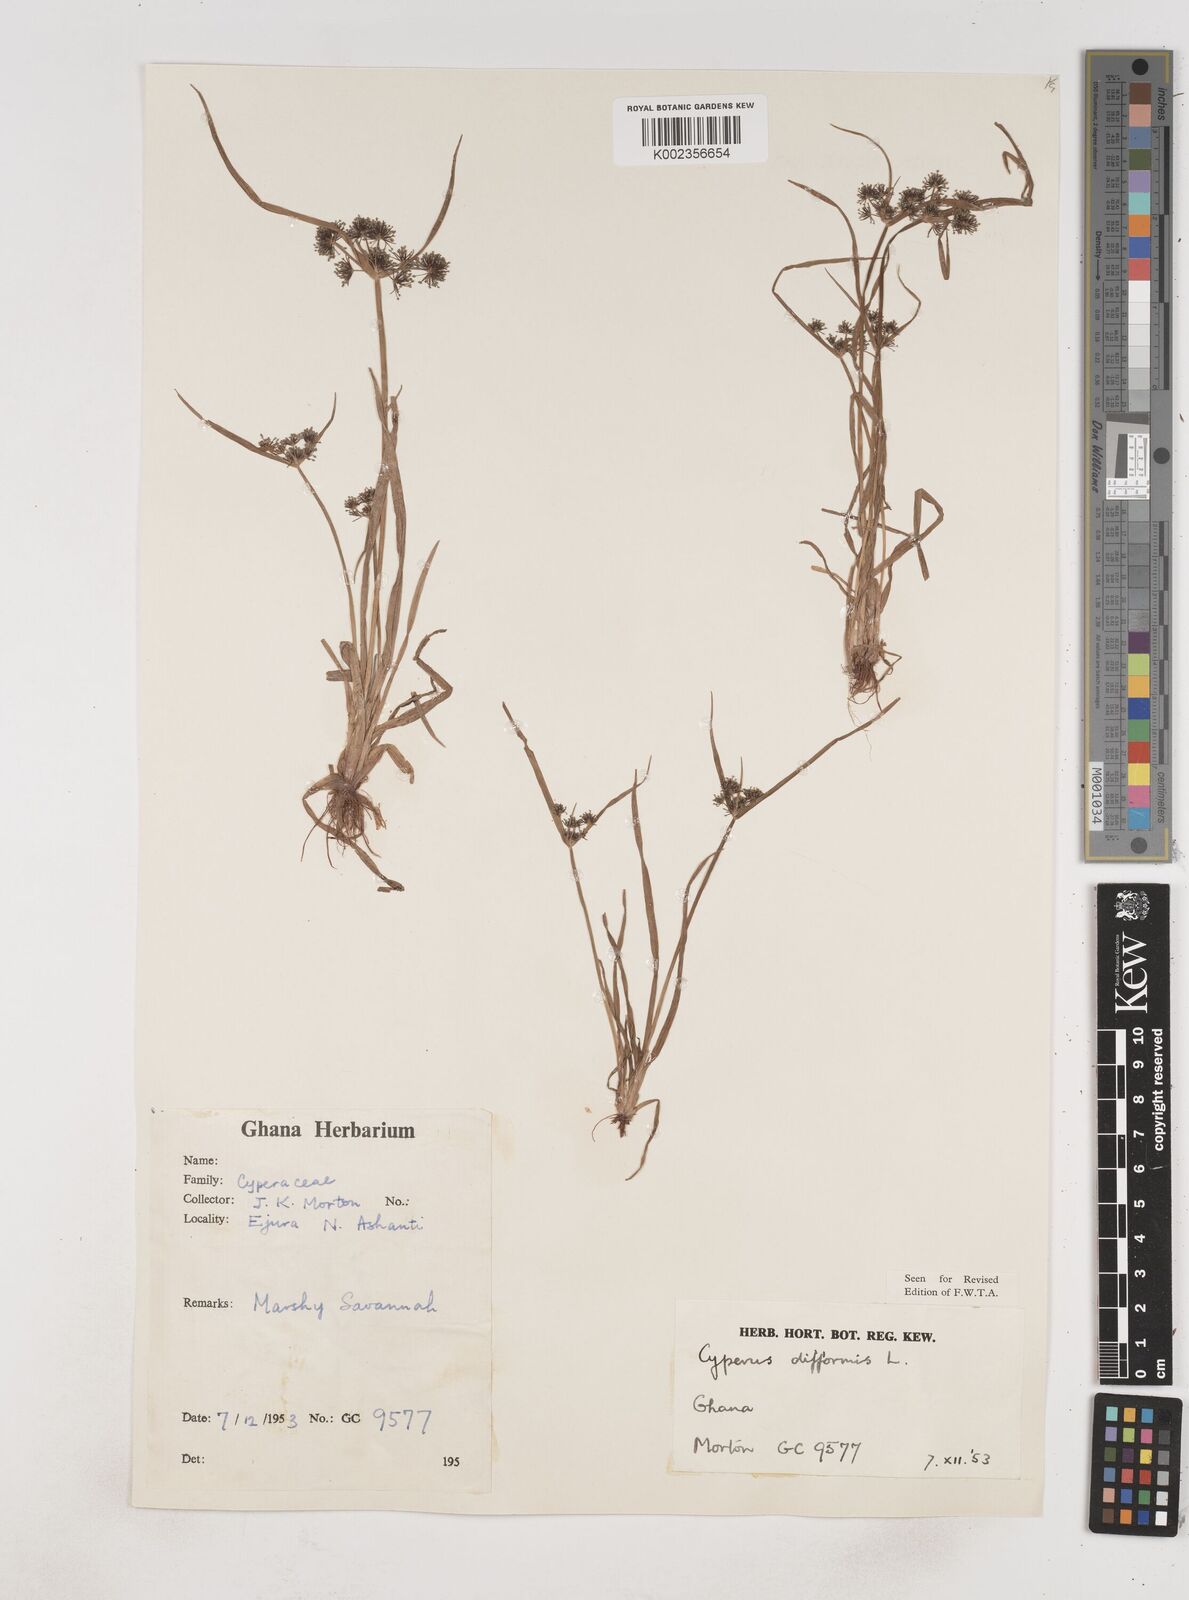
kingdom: Plantae
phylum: Tracheophyta
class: Liliopsida
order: Poales
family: Cyperaceae
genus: Cyperus
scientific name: Cyperus difformis
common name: Variable flatsedge
